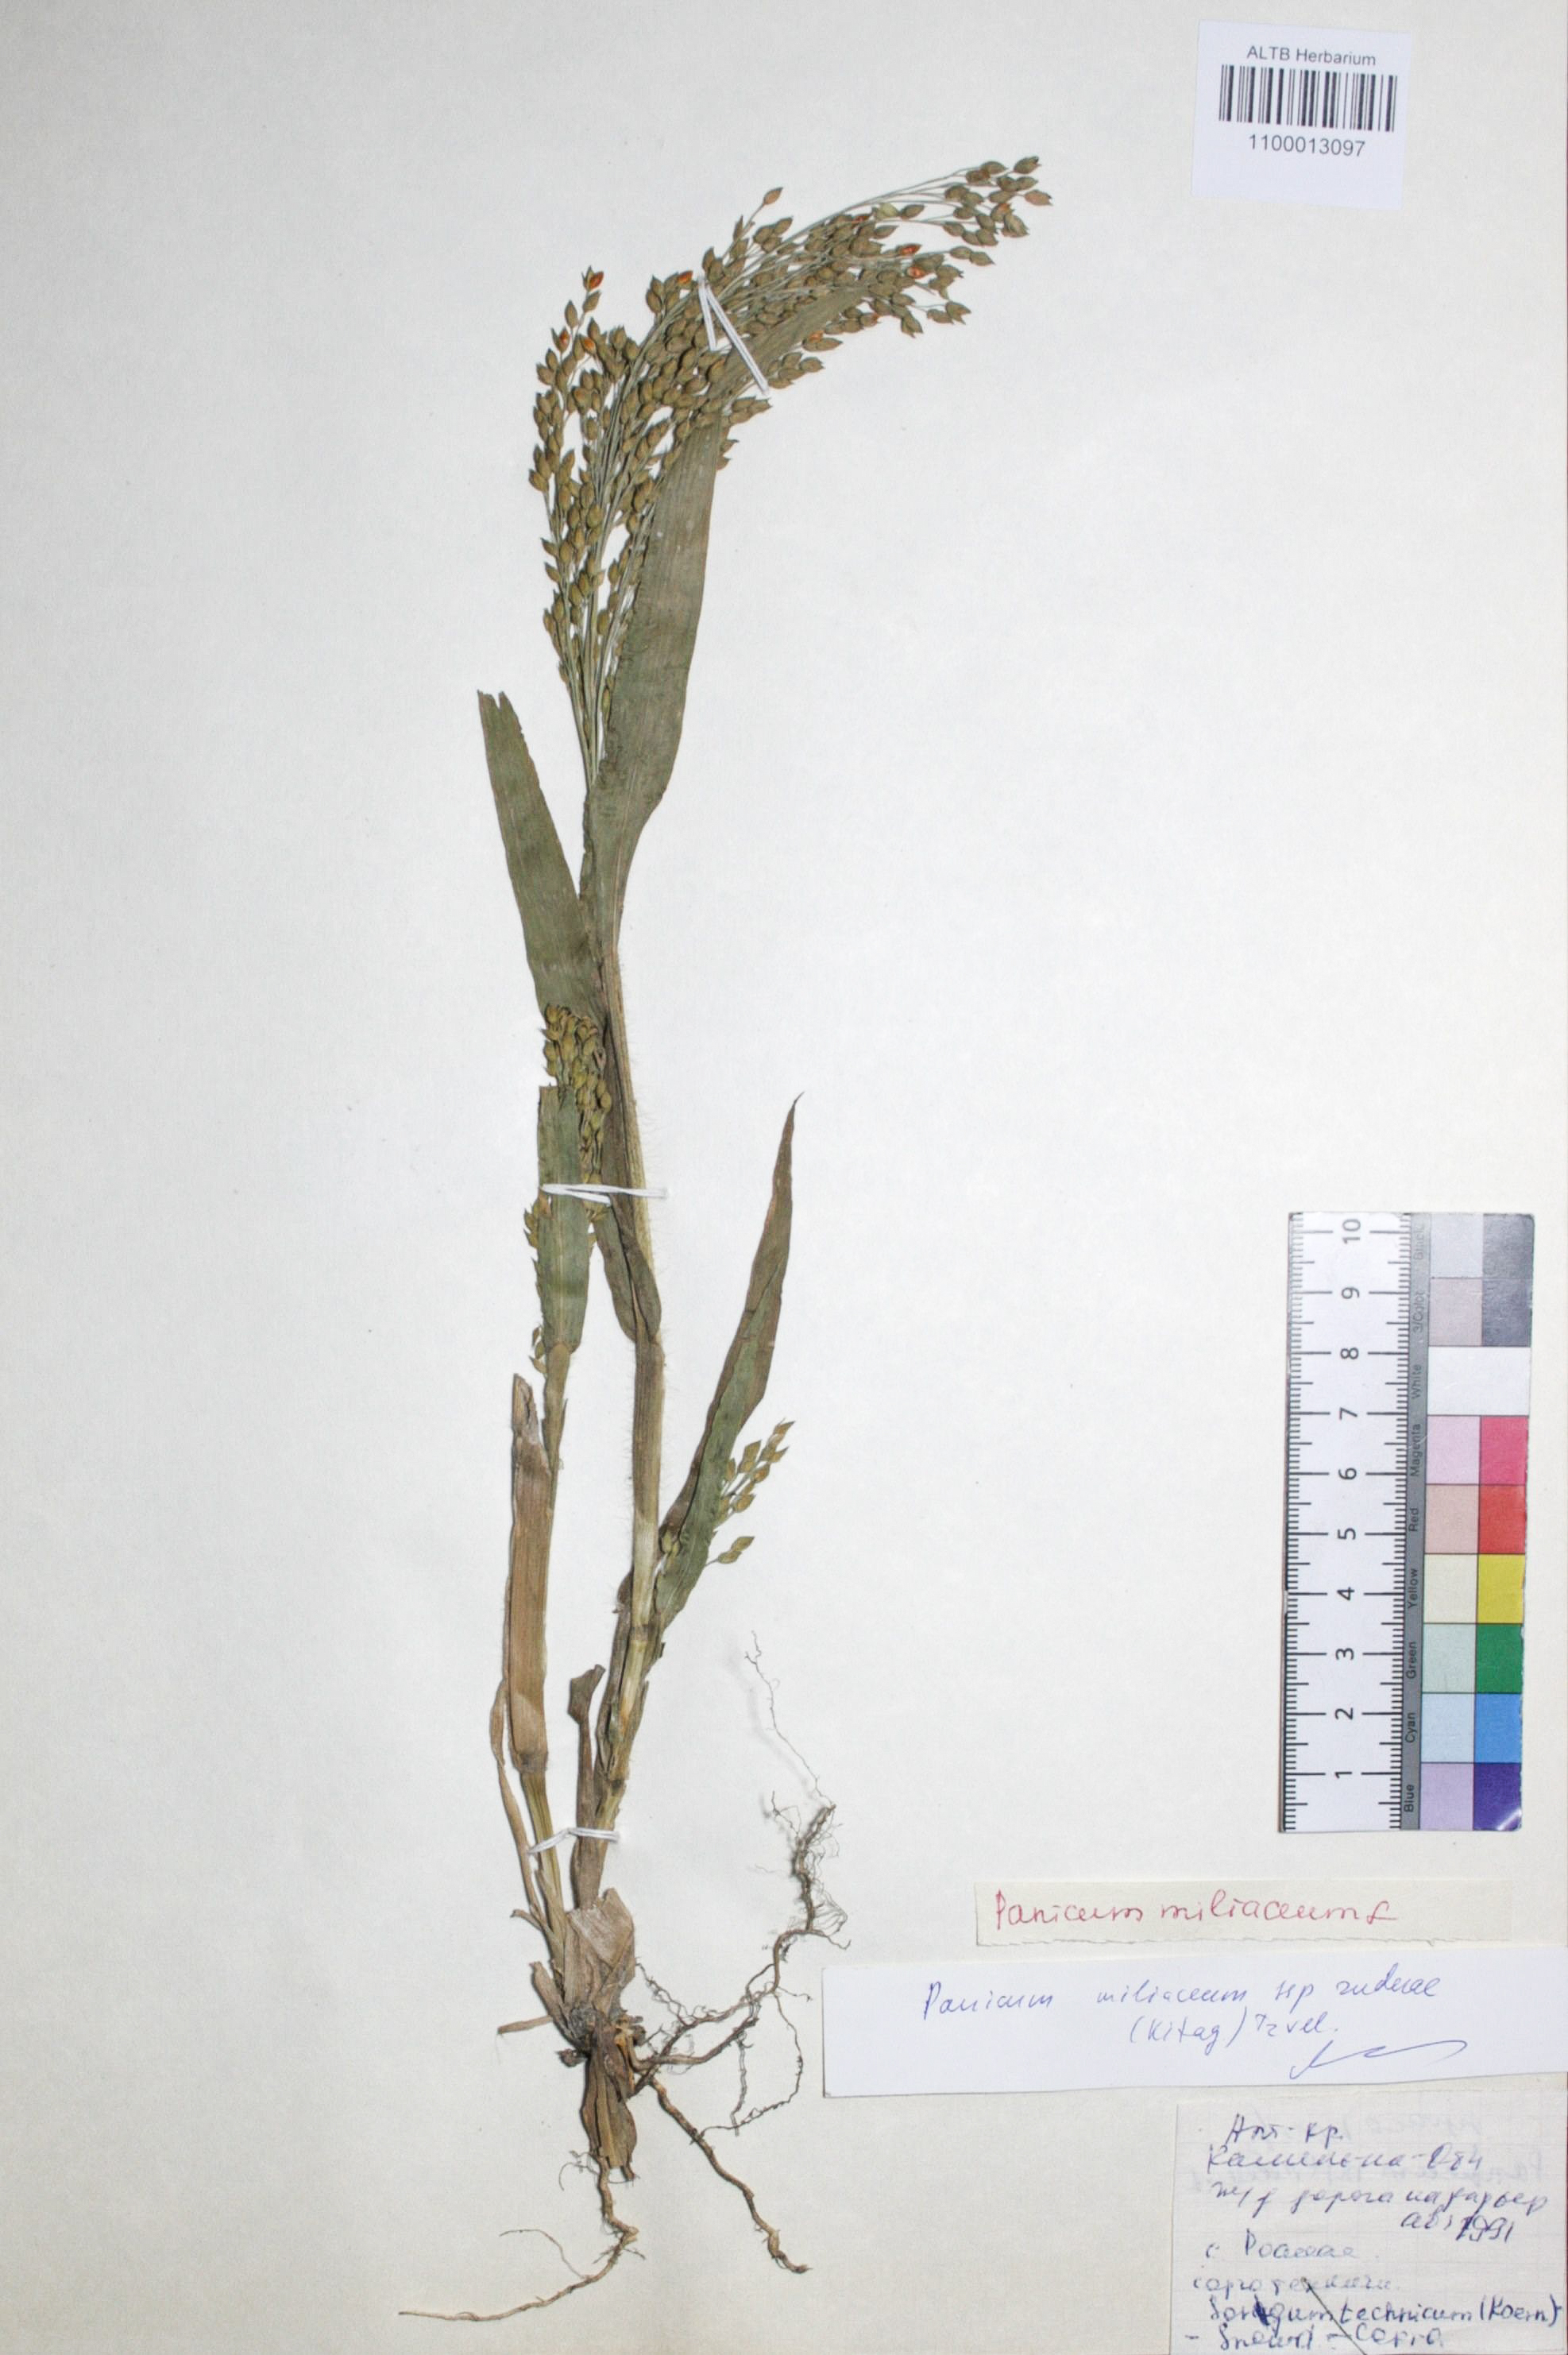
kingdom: Plantae
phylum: Tracheophyta
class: Liliopsida
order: Poales
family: Poaceae
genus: Panicum
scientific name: Panicum miliaceum
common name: Common millet
